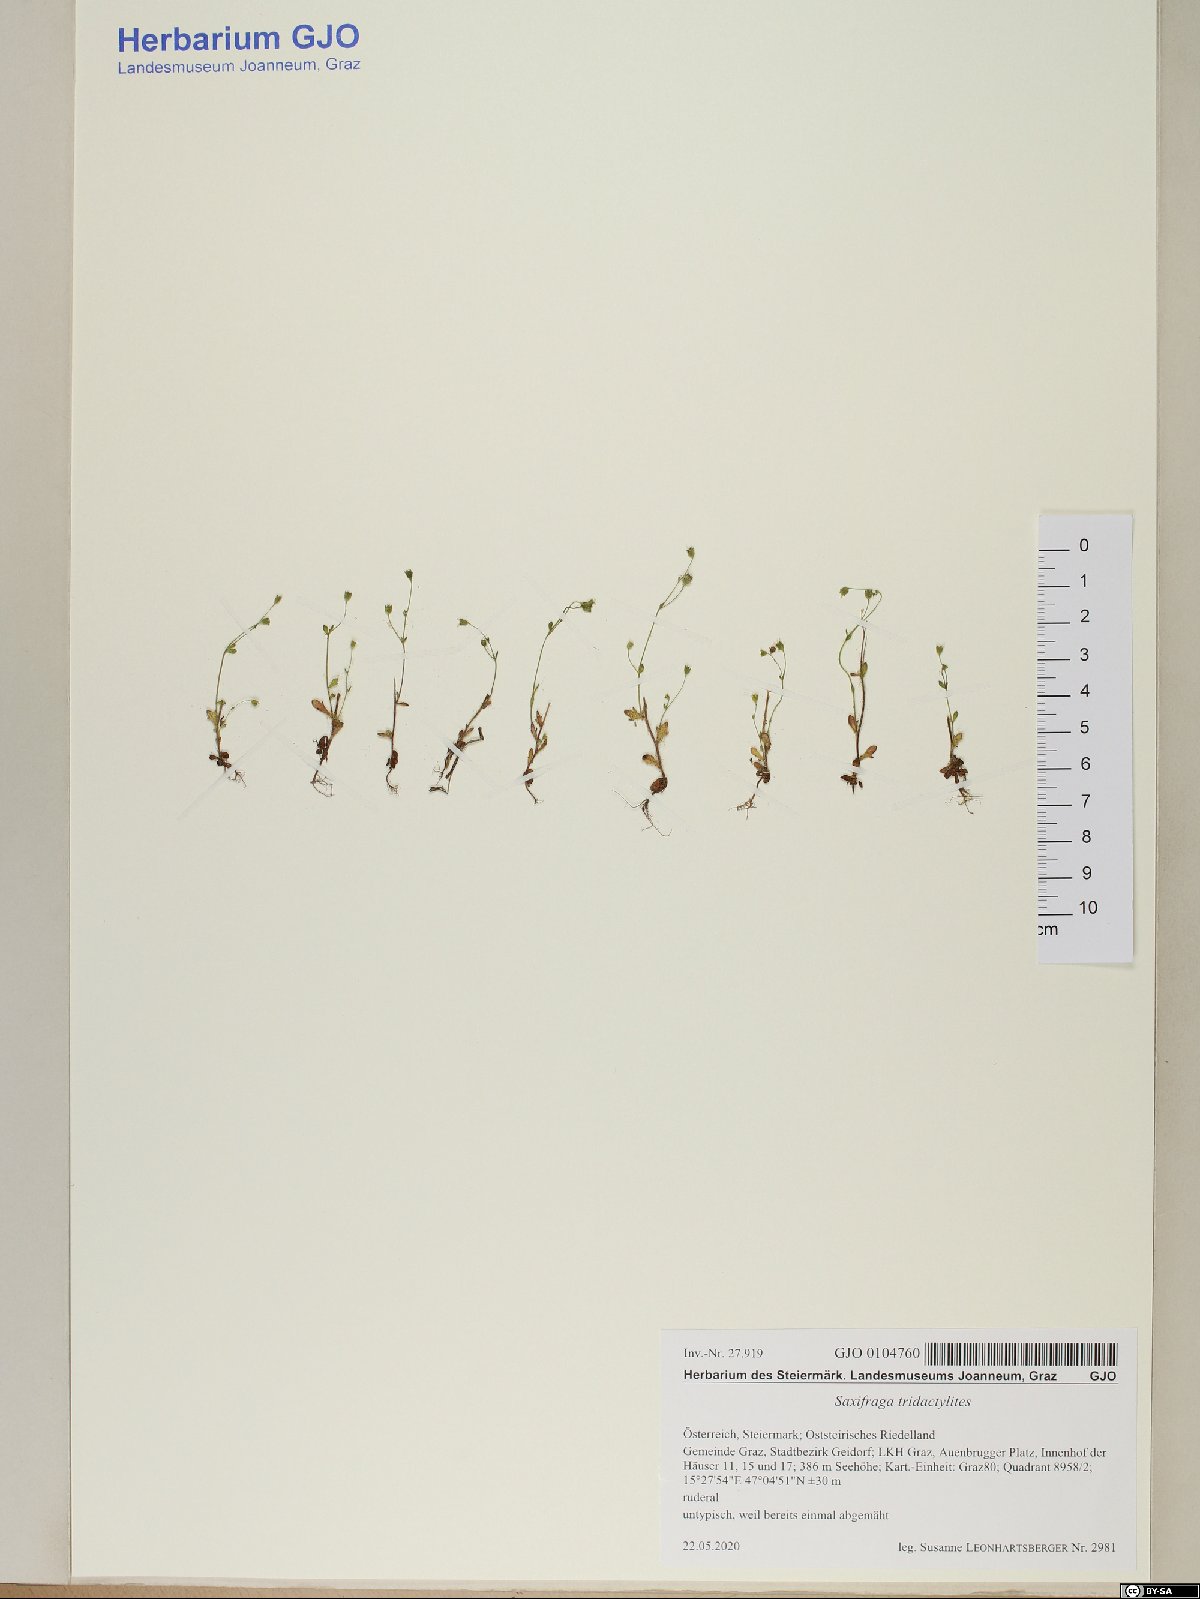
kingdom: Plantae
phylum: Tracheophyta
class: Magnoliopsida
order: Saxifragales
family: Saxifragaceae
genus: Saxifraga
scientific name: Saxifraga tridactylites
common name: Rue-leaved saxifrage
